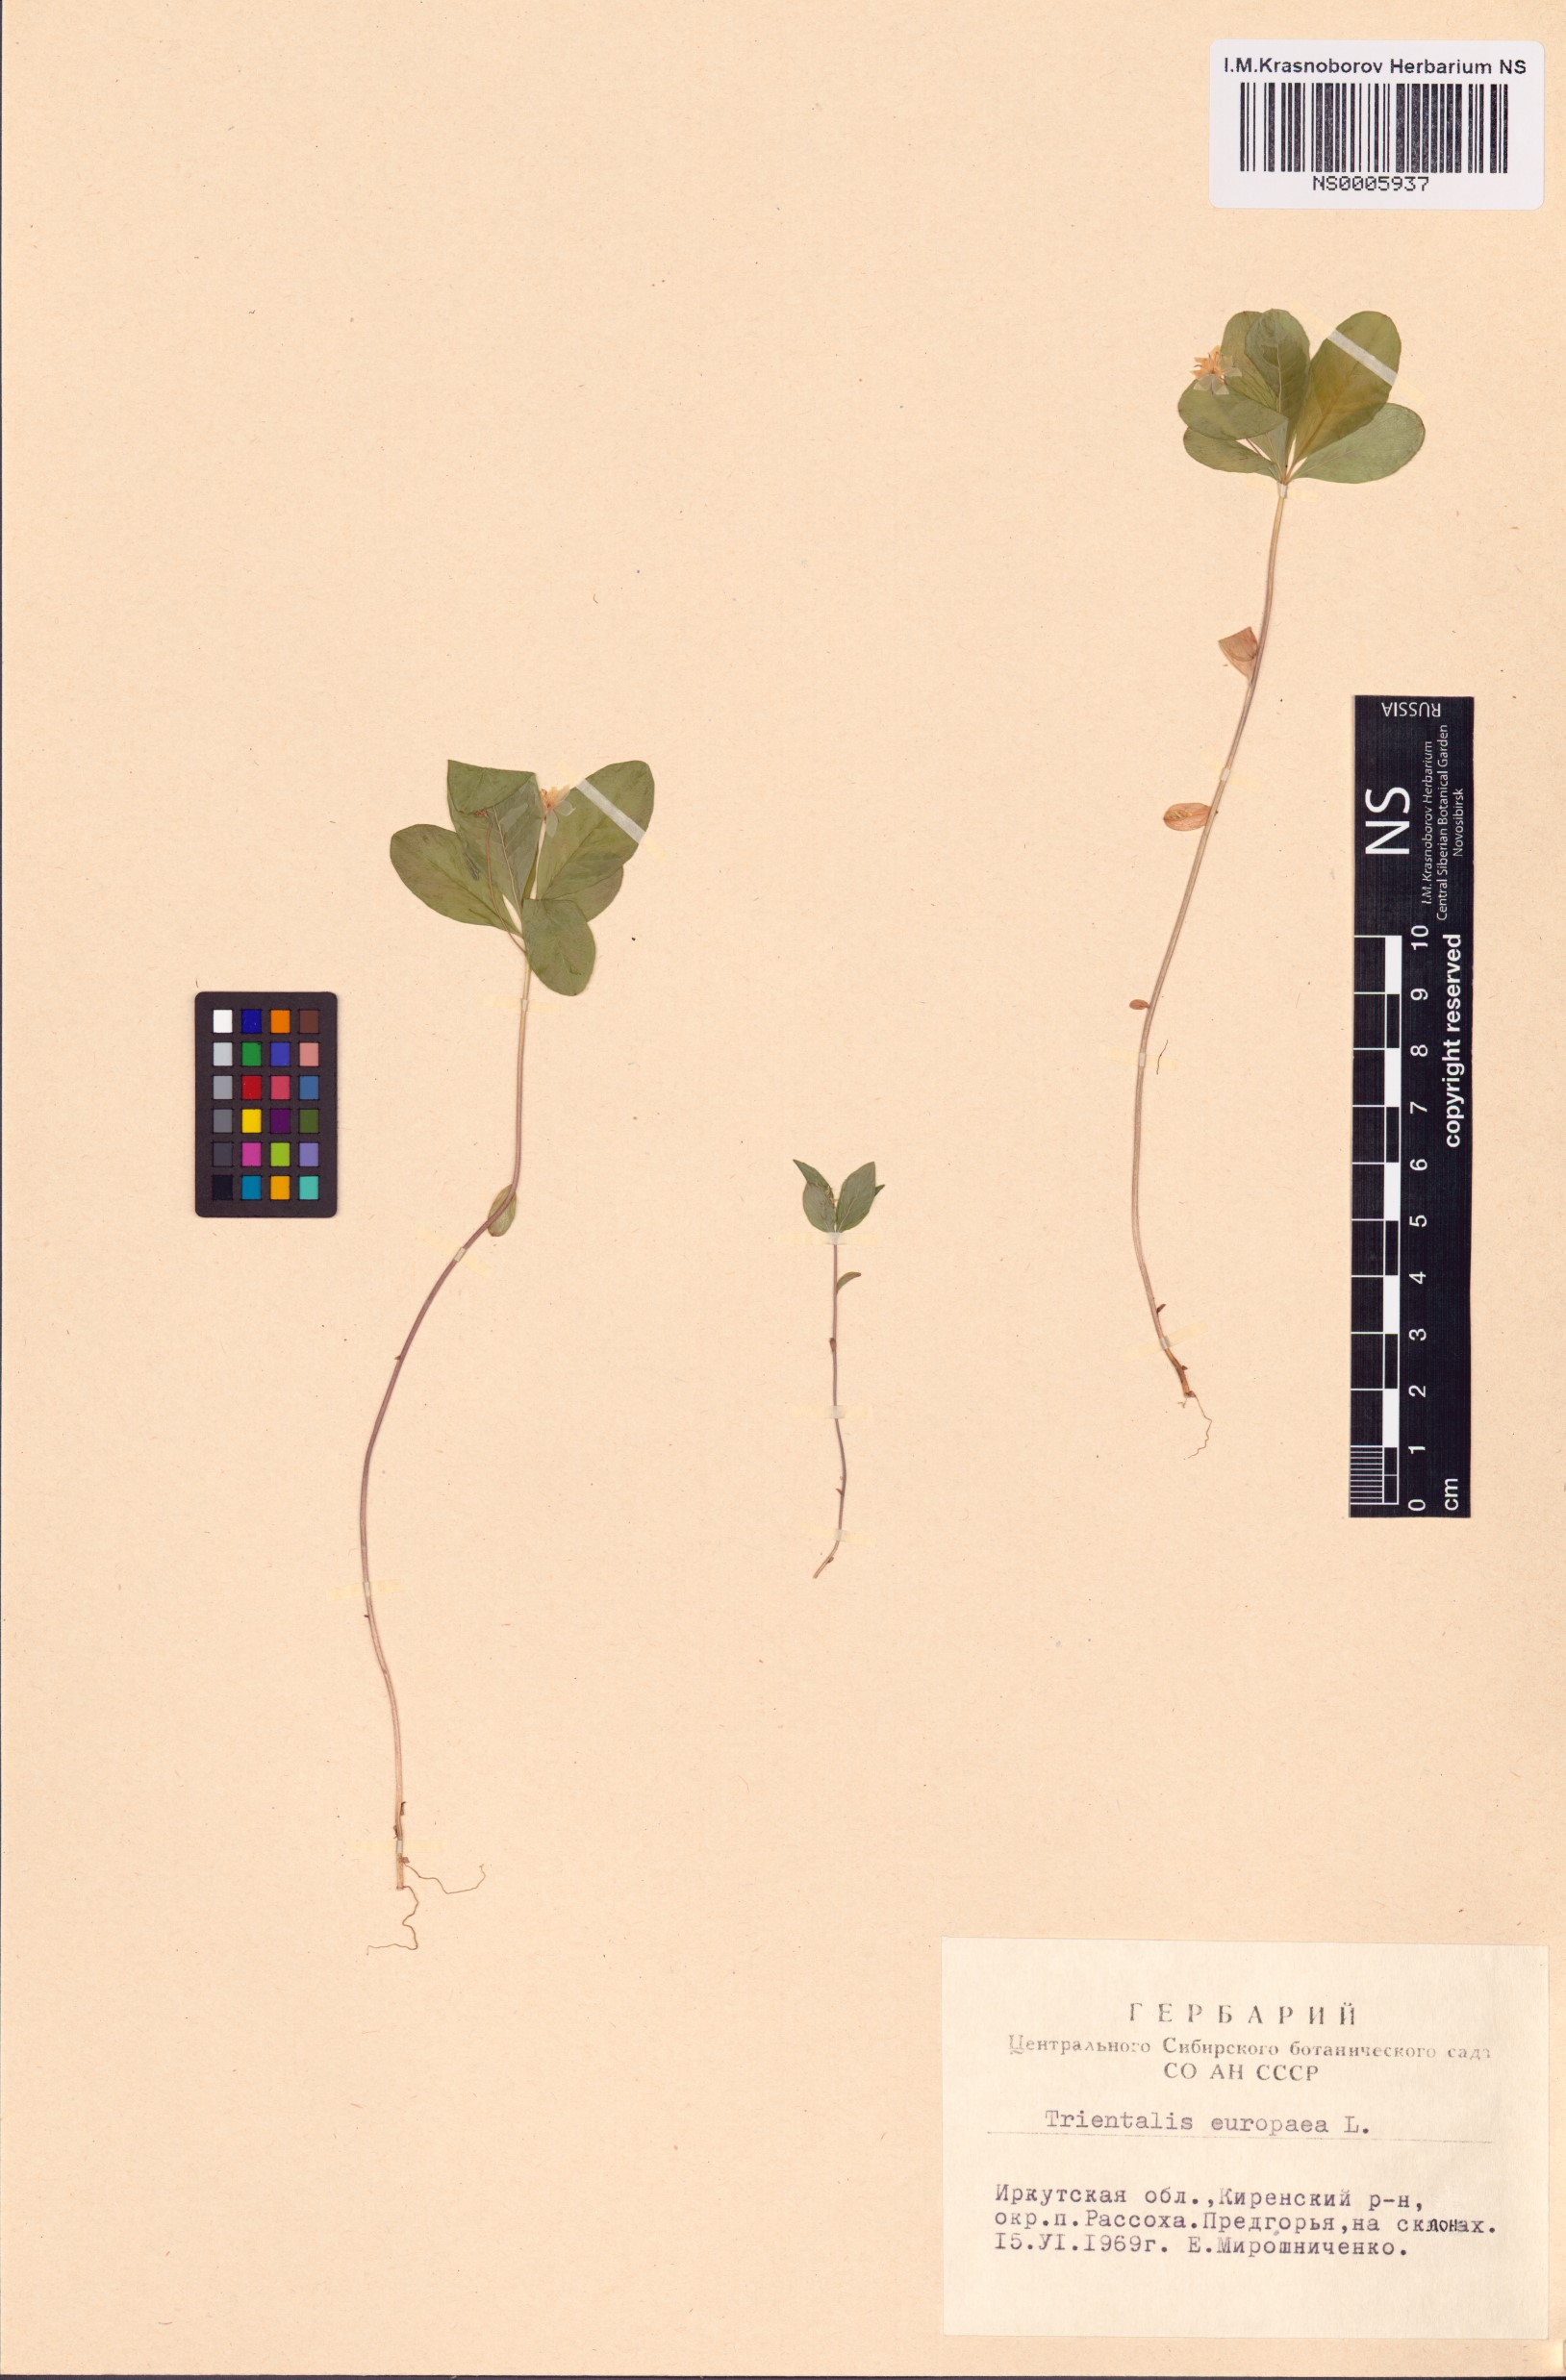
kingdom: Plantae
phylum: Tracheophyta
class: Magnoliopsida
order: Ericales
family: Primulaceae
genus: Lysimachia
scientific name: Lysimachia europaea
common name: Arctic starflower
